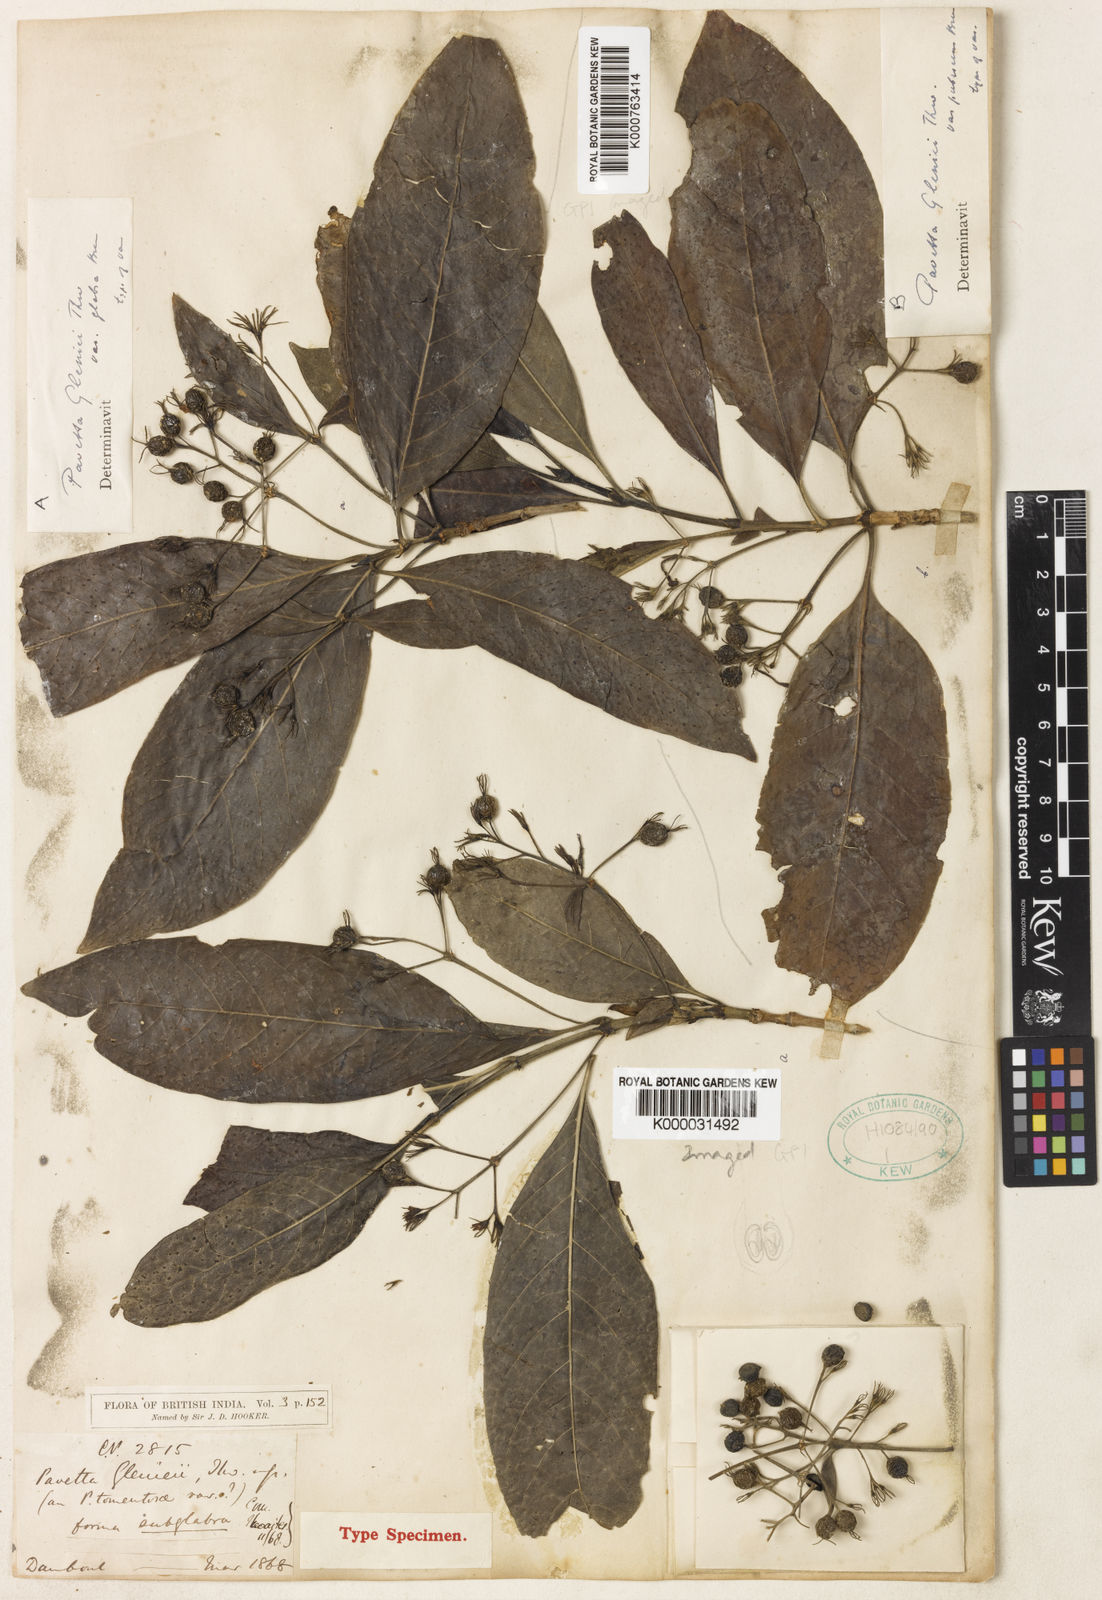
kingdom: Plantae
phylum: Tracheophyta
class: Magnoliopsida
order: Gentianales
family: Rubiaceae
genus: Pavetta
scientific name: Pavetta
